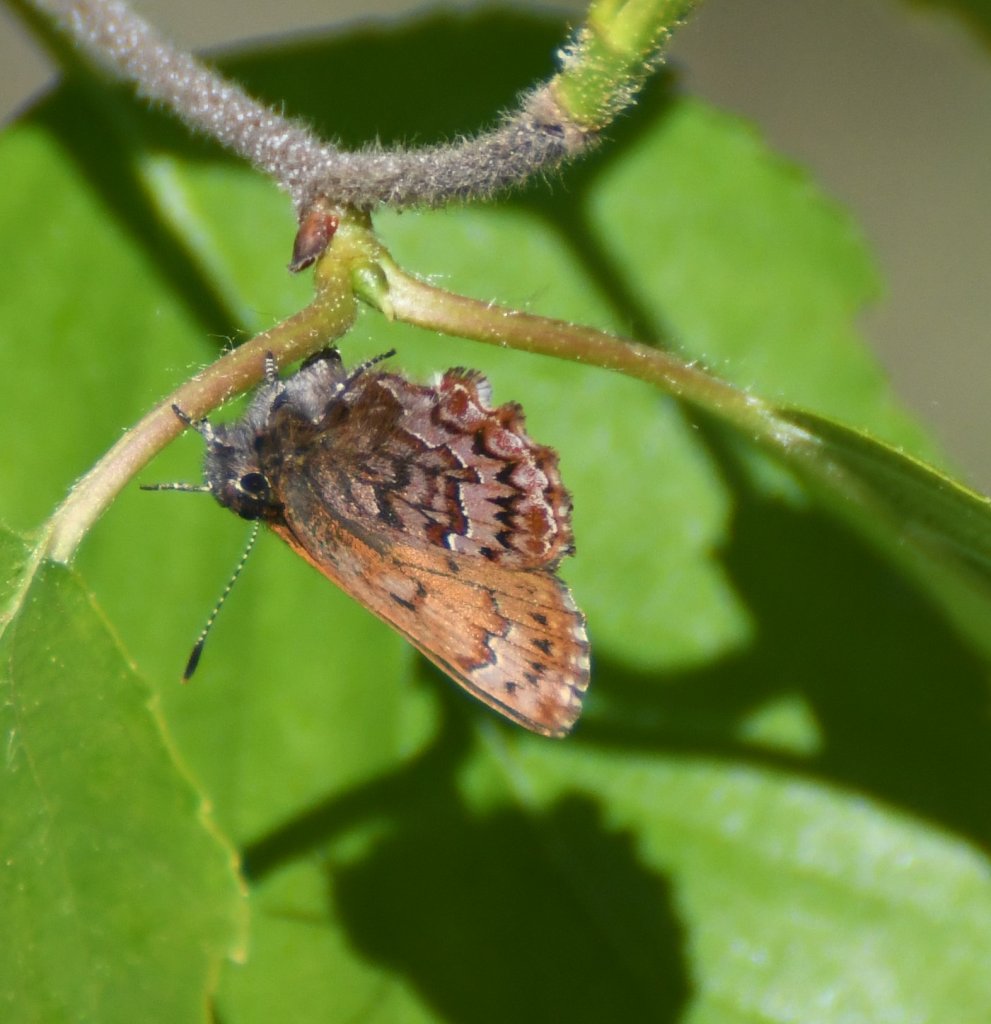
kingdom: Animalia
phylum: Arthropoda
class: Insecta
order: Lepidoptera
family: Lycaenidae
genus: Incisalia
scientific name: Incisalia eryphon
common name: Western Pine Elfin
